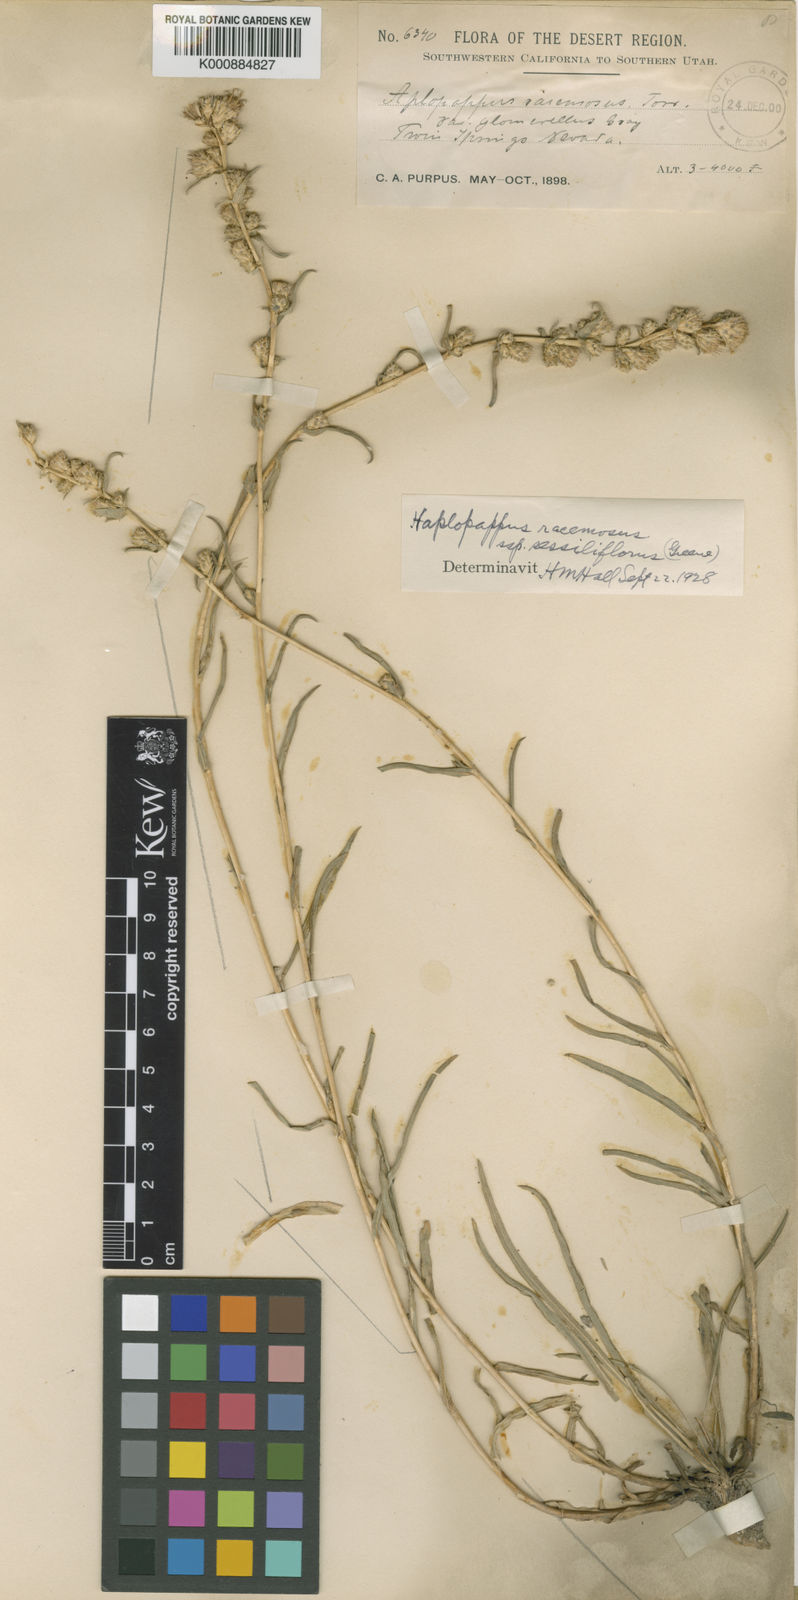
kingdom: Plantae
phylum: Tracheophyta
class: Magnoliopsida
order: Asterales
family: Asteraceae
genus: Pyrrocoma
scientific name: Pyrrocoma racemosa
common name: Clustered goldenweed
